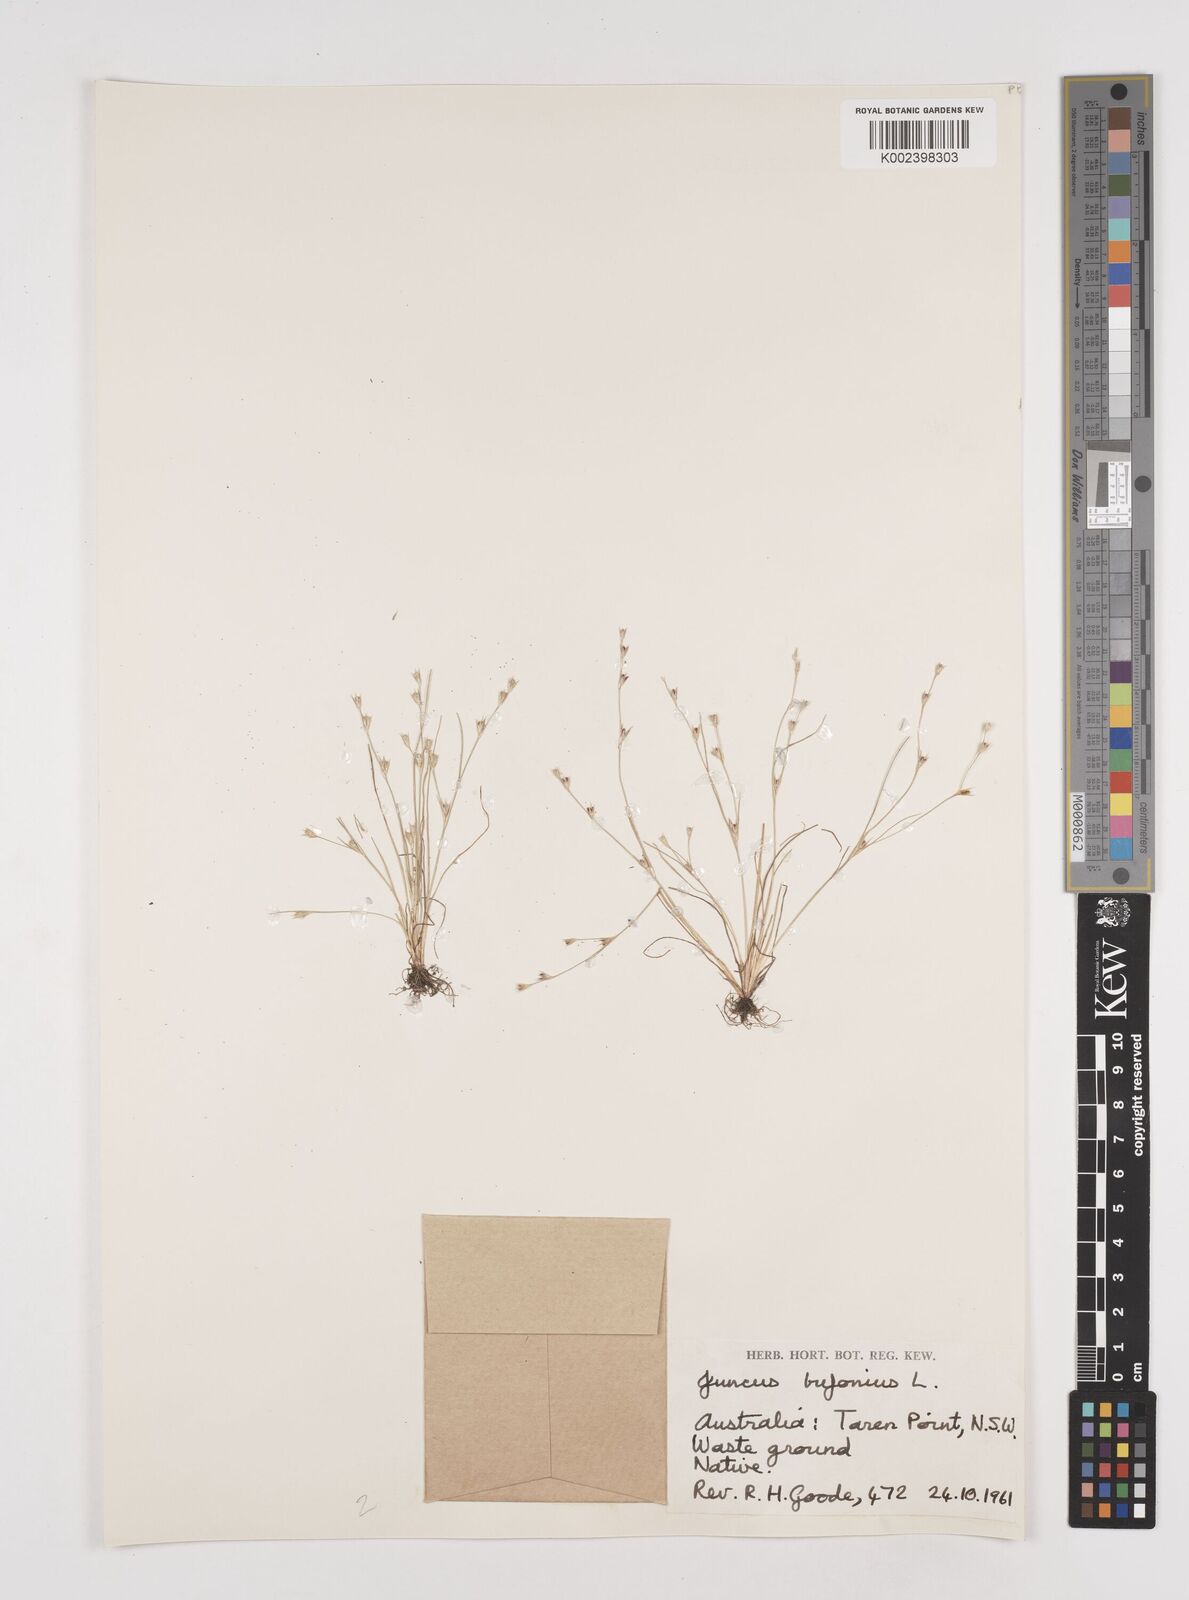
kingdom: Plantae
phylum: Tracheophyta
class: Liliopsida
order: Poales
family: Juncaceae
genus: Juncus
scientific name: Juncus bufonius
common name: Toad rush
